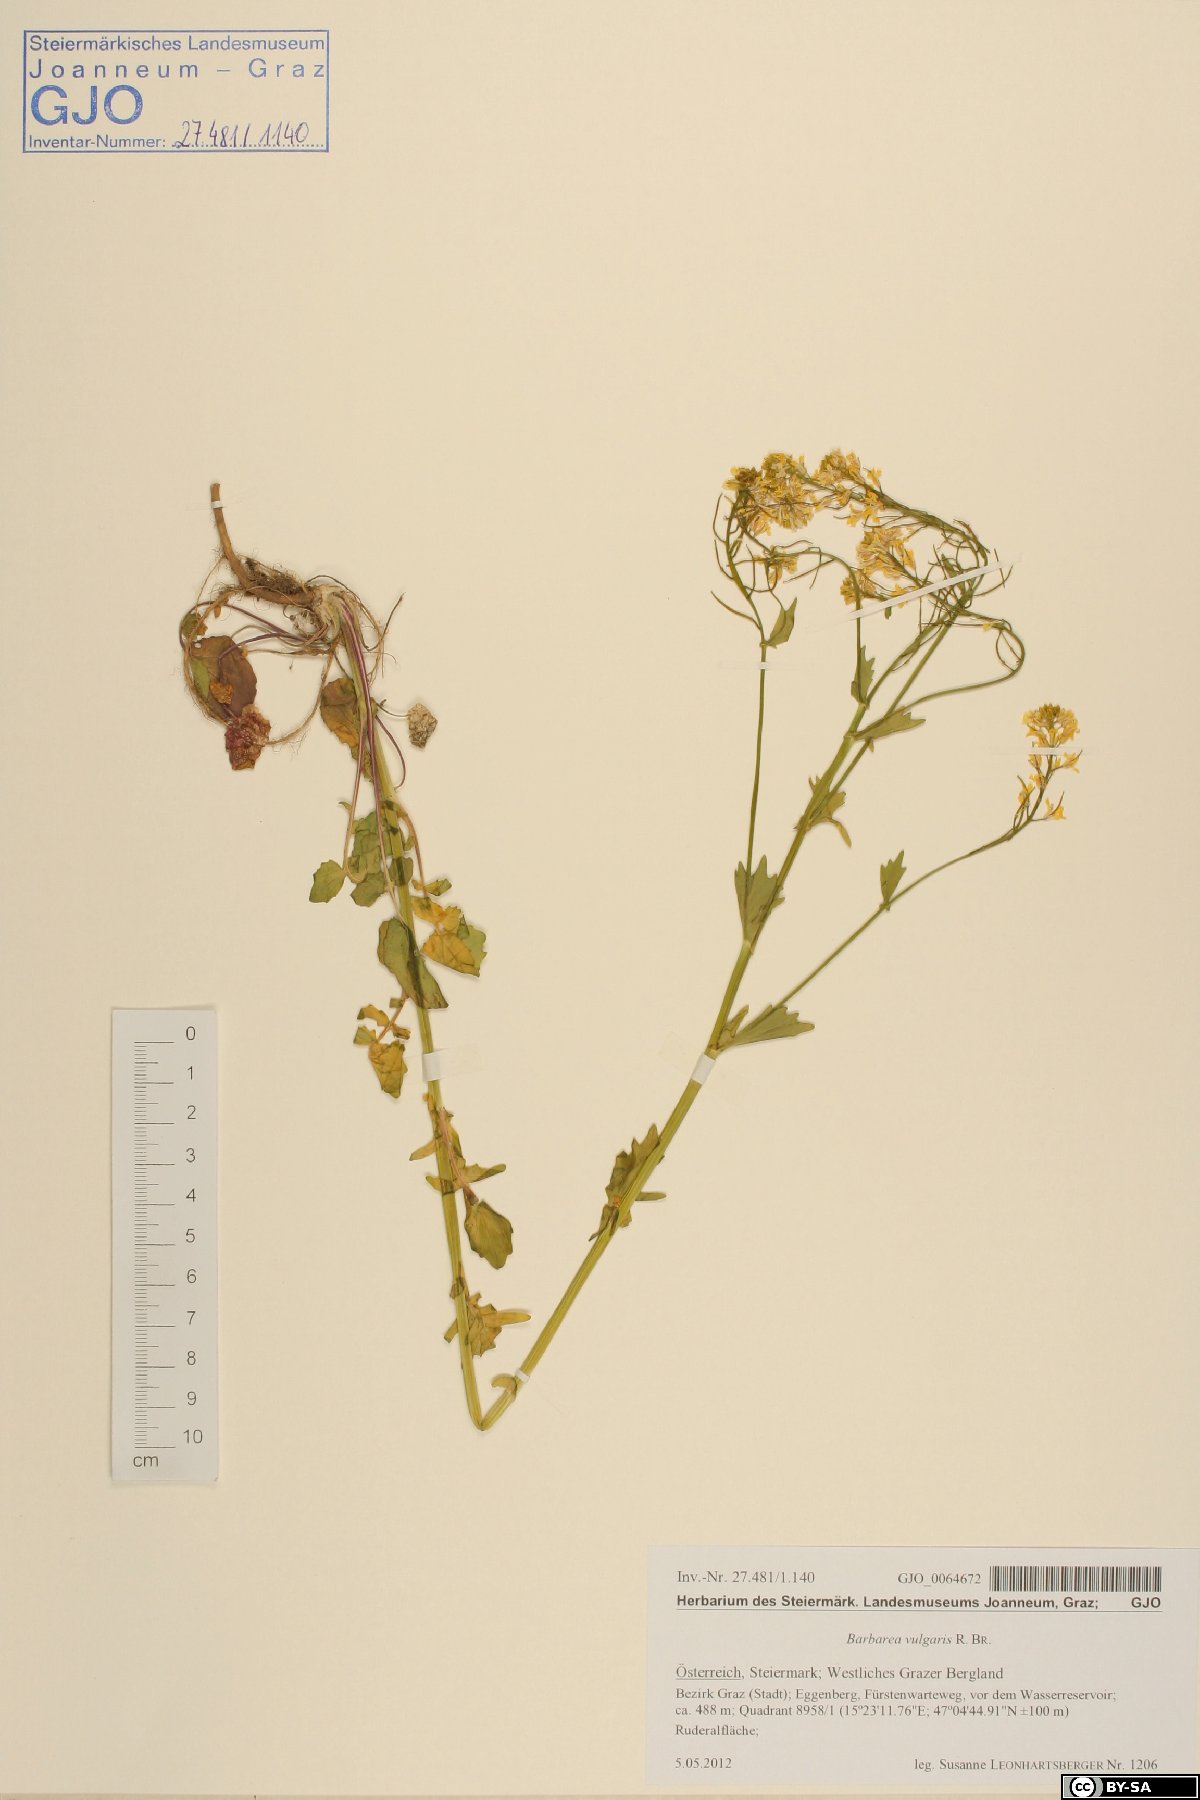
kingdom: Plantae
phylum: Tracheophyta
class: Magnoliopsida
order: Brassicales
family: Brassicaceae
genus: Barbarea
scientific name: Barbarea vulgaris
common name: Cressy-greens
